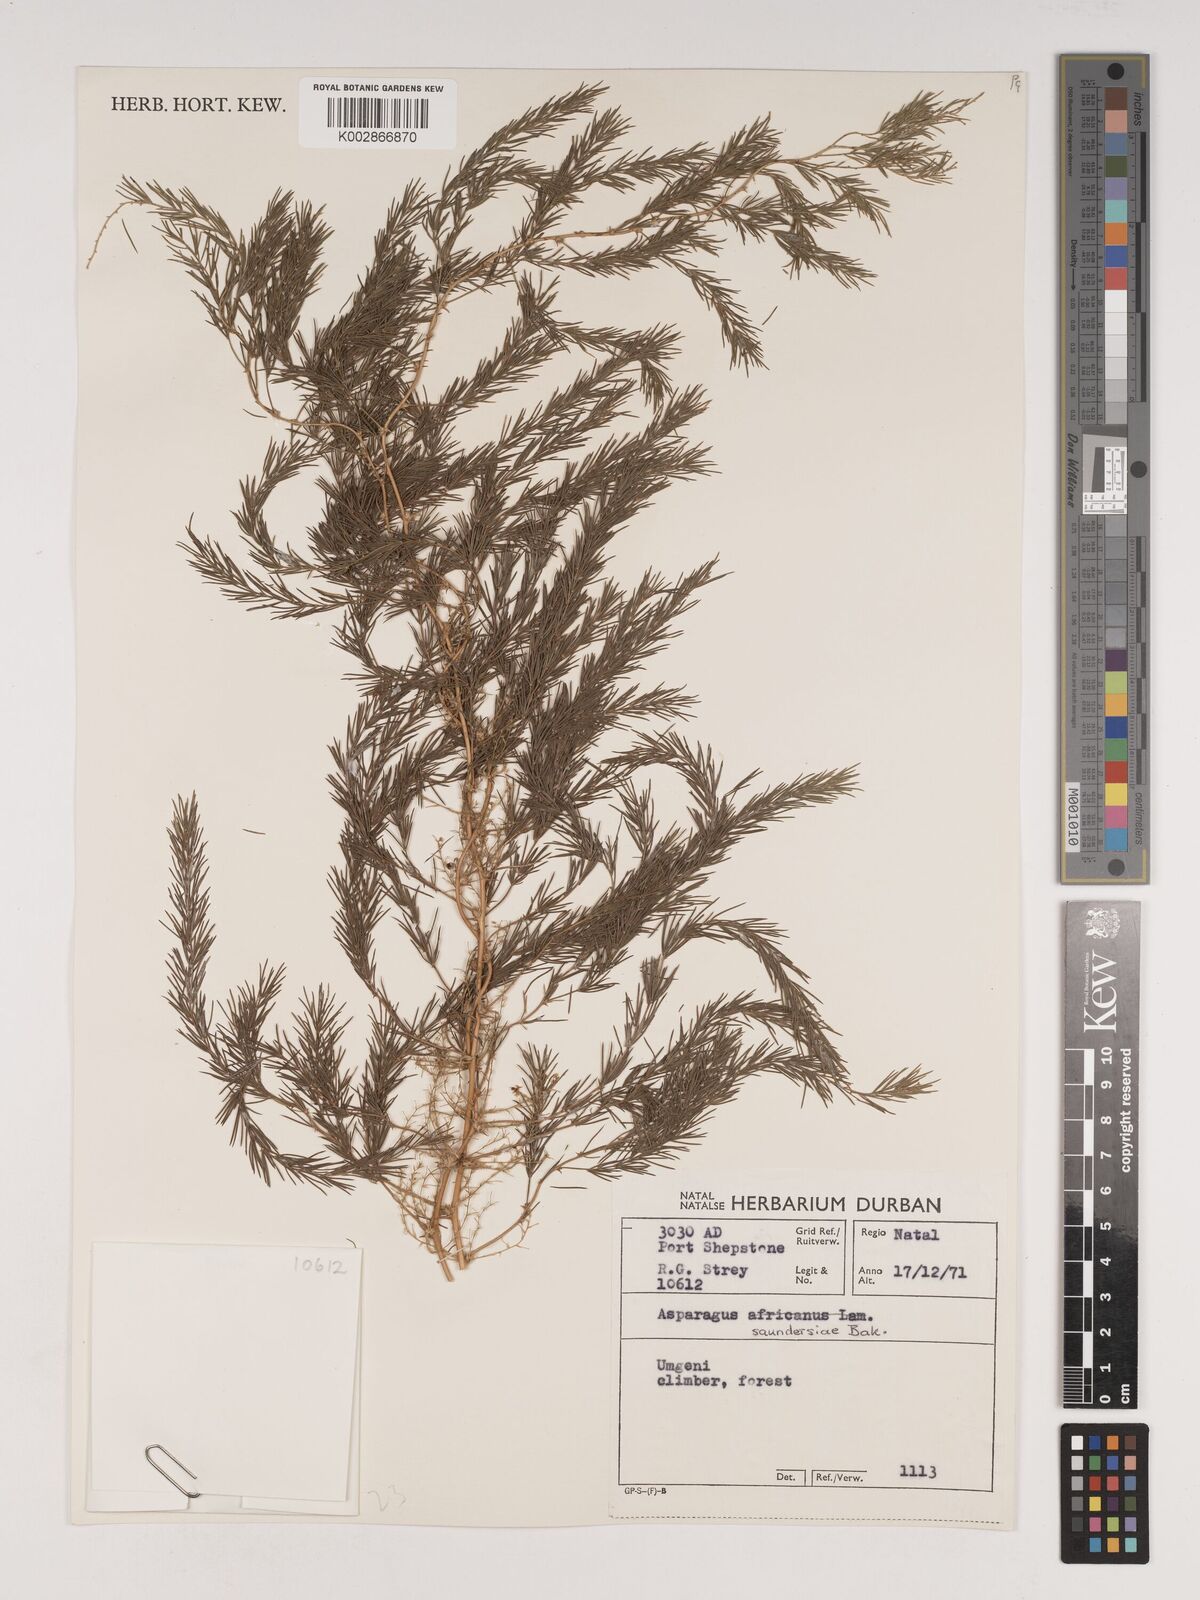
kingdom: Plantae
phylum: Tracheophyta
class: Liliopsida
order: Asparagales
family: Asparagaceae
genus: Asparagus
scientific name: Asparagus saundersiae
